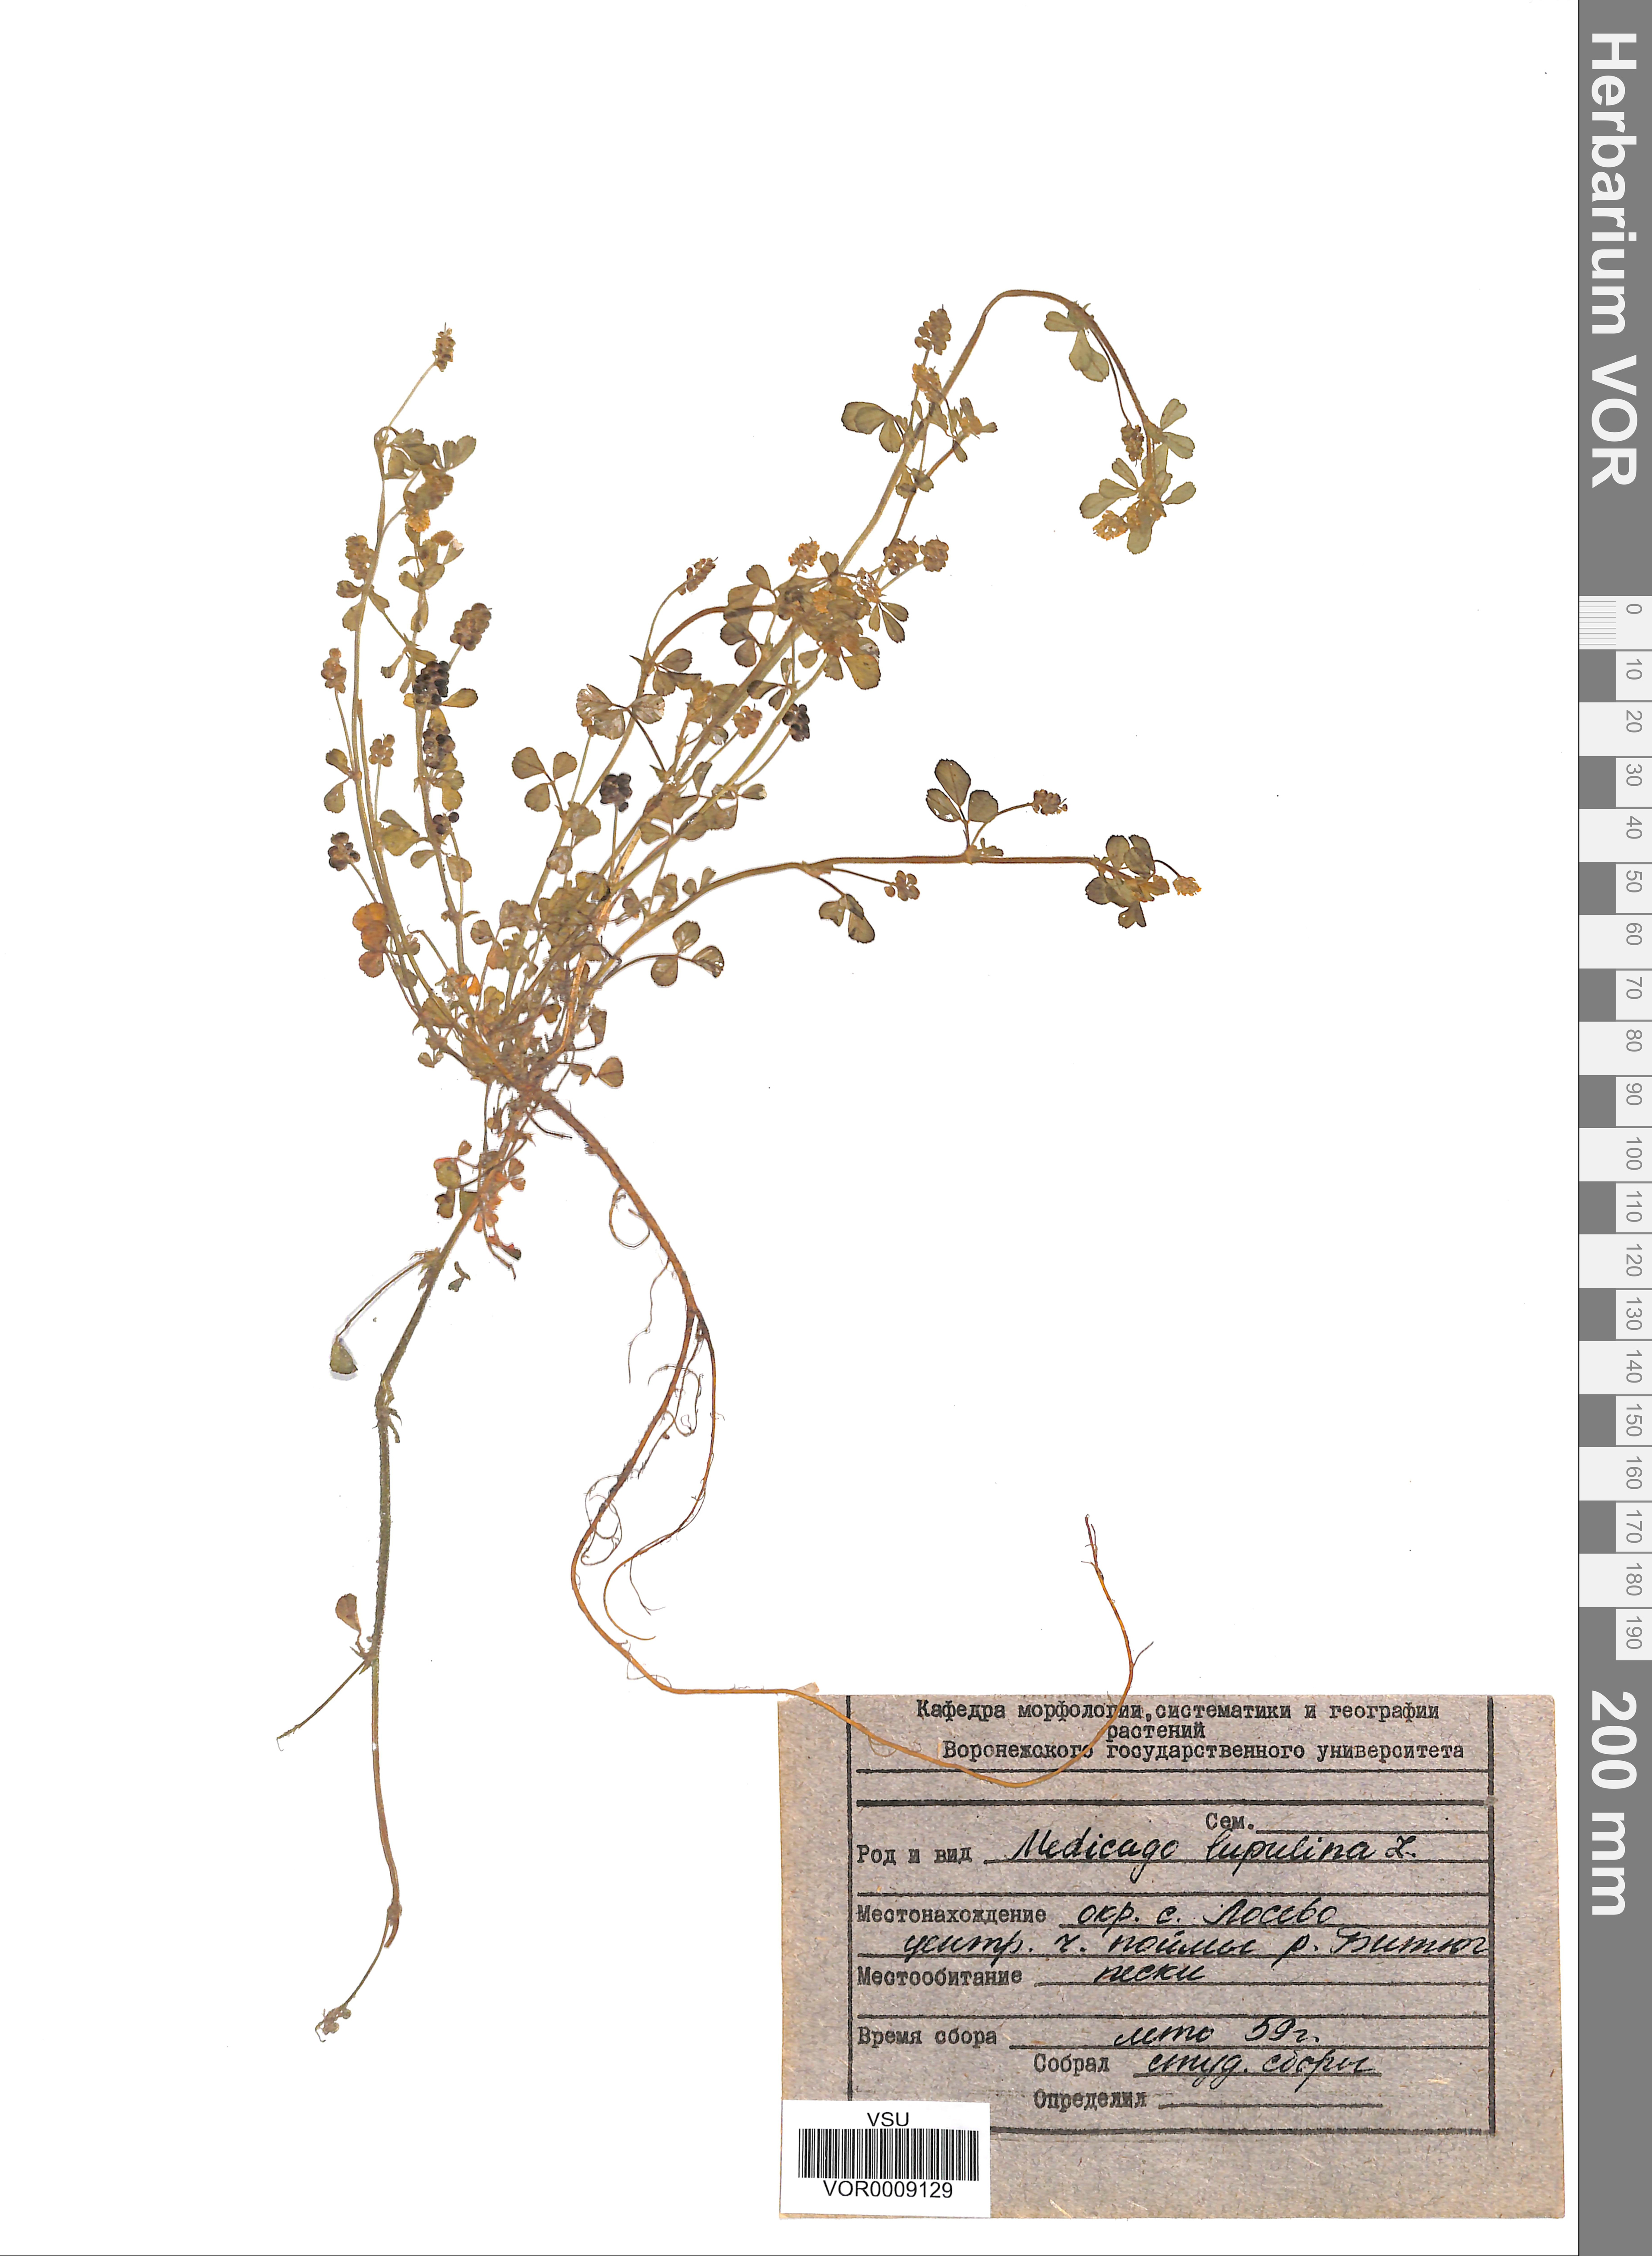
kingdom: Plantae
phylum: Tracheophyta
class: Magnoliopsida
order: Fabales
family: Fabaceae
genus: Medicago
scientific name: Medicago lupulina
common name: Black medick
